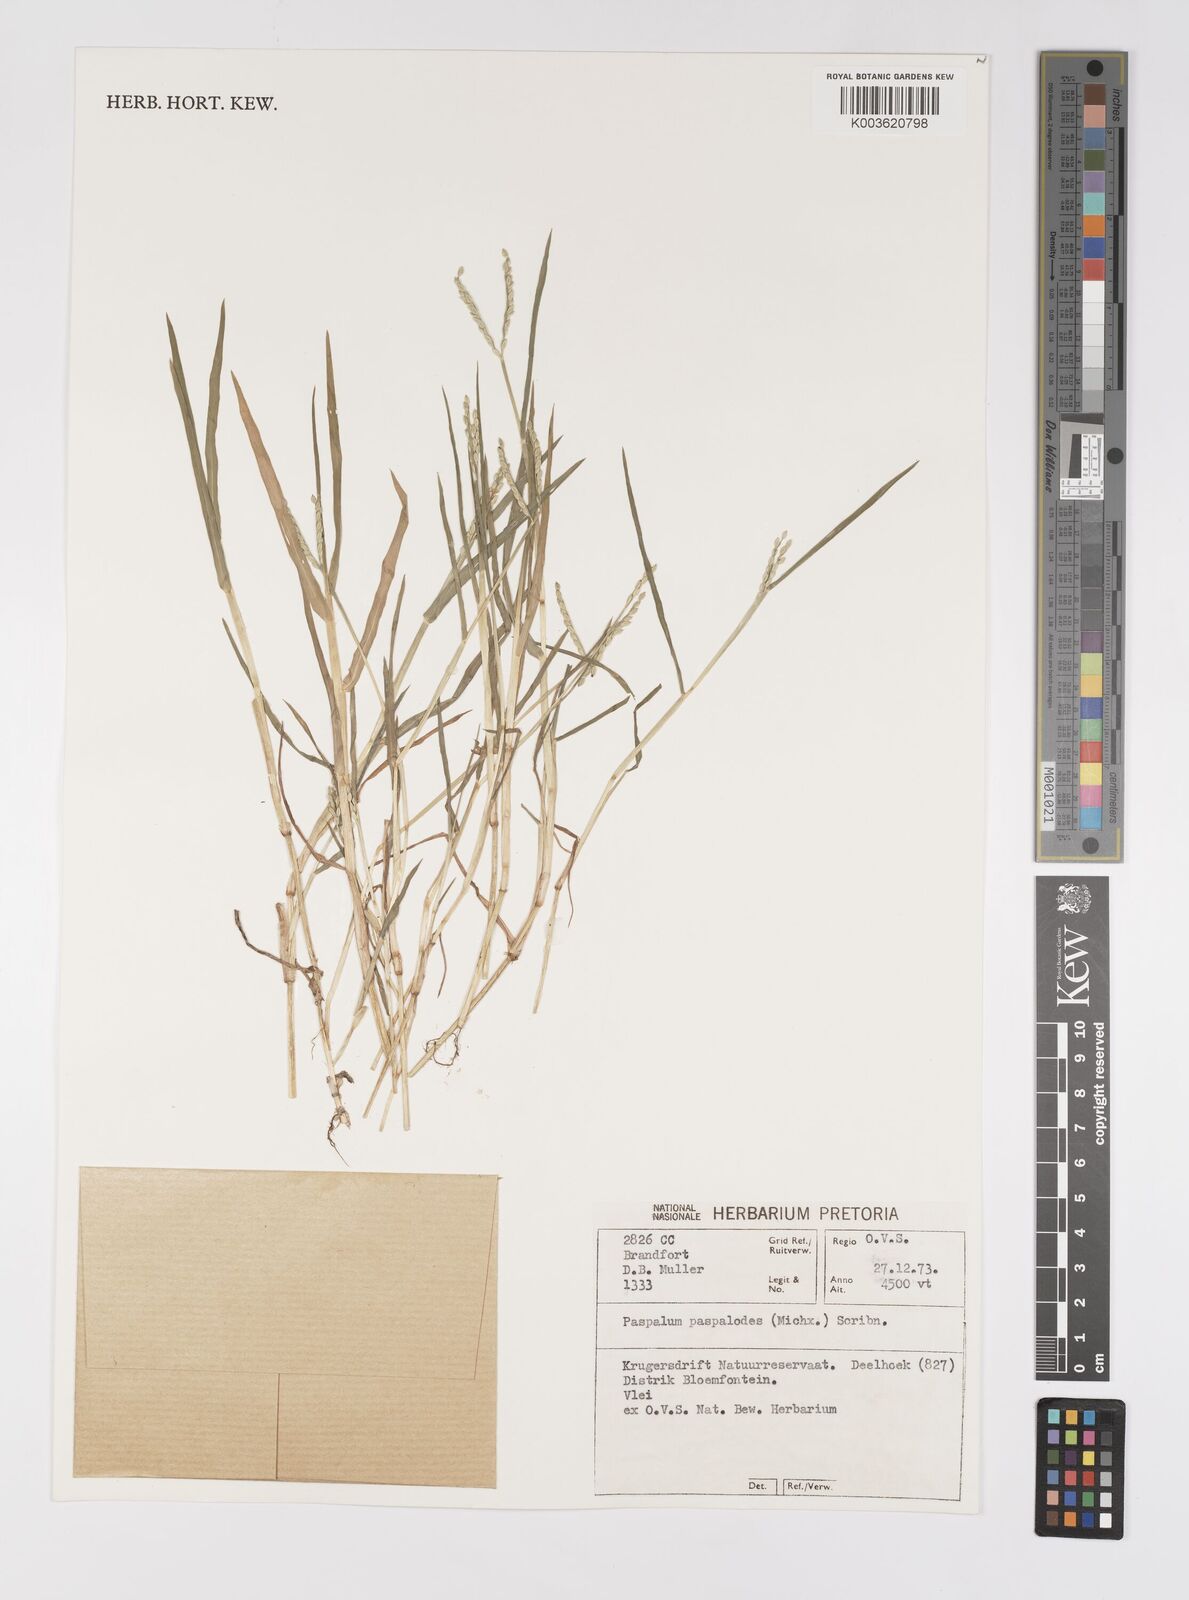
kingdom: Plantae
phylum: Tracheophyta
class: Liliopsida
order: Poales
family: Poaceae
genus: Paspalum
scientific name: Paspalum distichum
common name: Knotgrass
